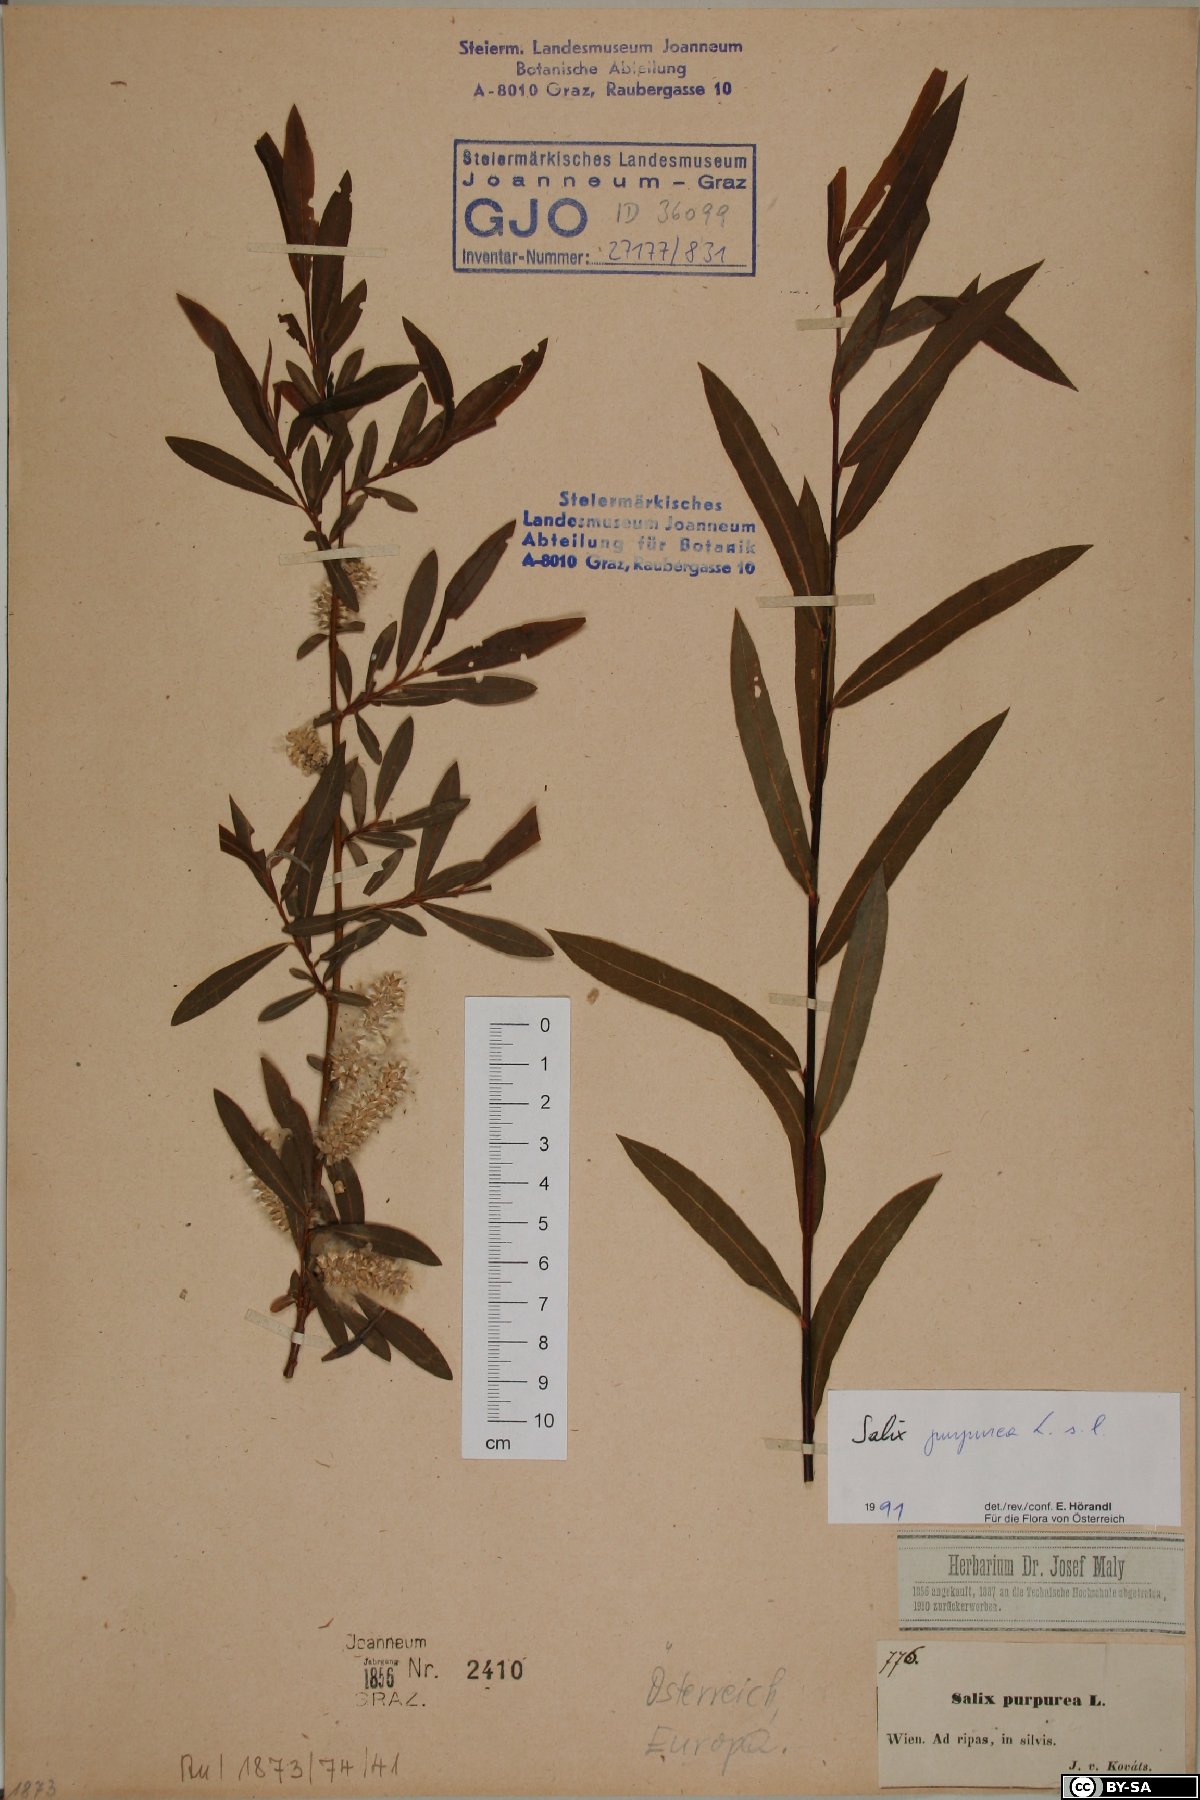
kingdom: Plantae
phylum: Tracheophyta
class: Magnoliopsida
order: Malpighiales
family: Salicaceae
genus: Salix
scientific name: Salix purpurea
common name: Purple willow
